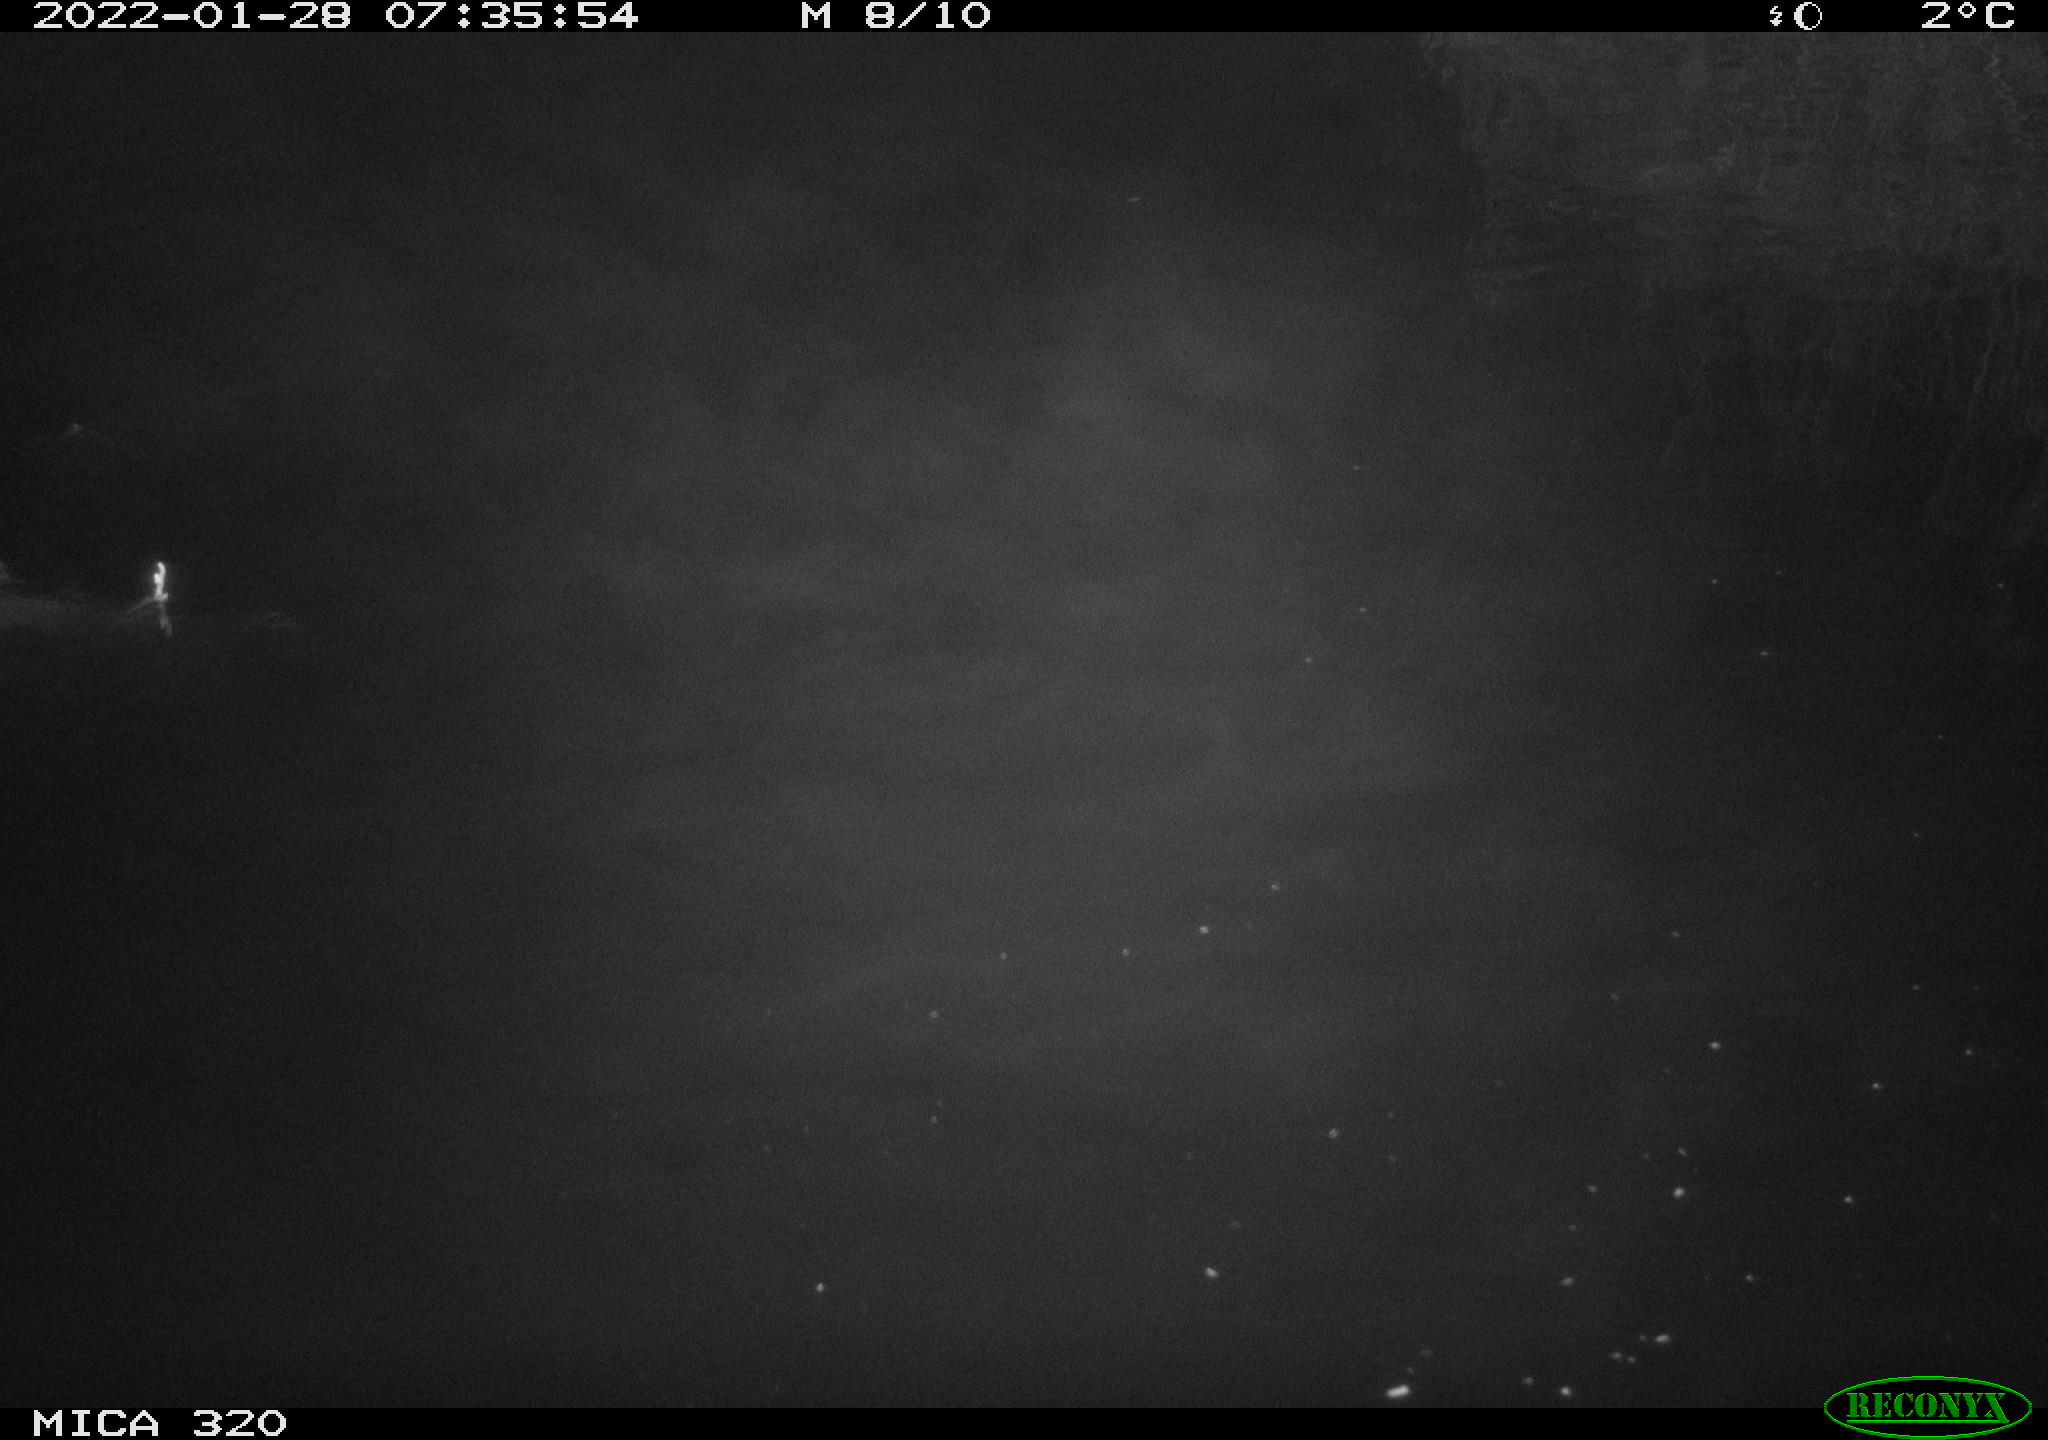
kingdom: Animalia
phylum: Chordata
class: Aves
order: Anseriformes
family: Anatidae
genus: Anas
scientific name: Anas
